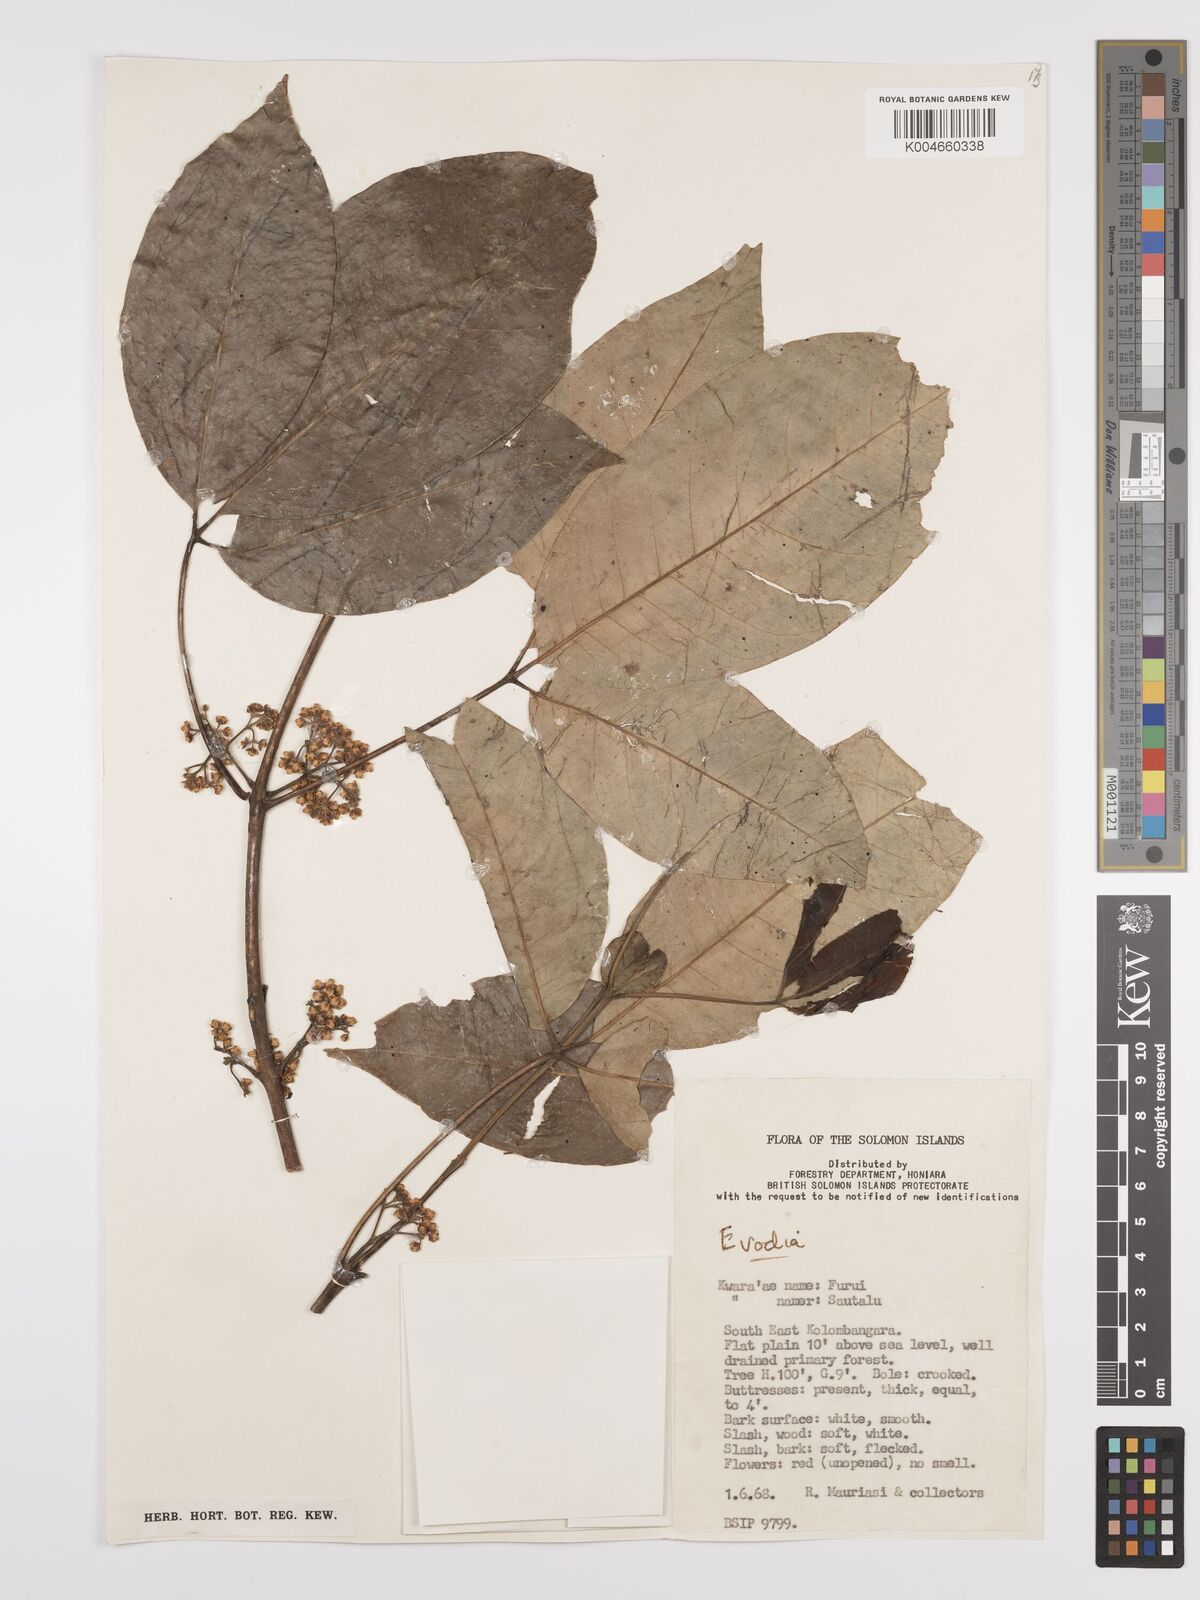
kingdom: Plantae
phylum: Tracheophyta
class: Magnoliopsida
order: Sapindales
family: Rutaceae
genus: Euodia
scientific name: Euodia
